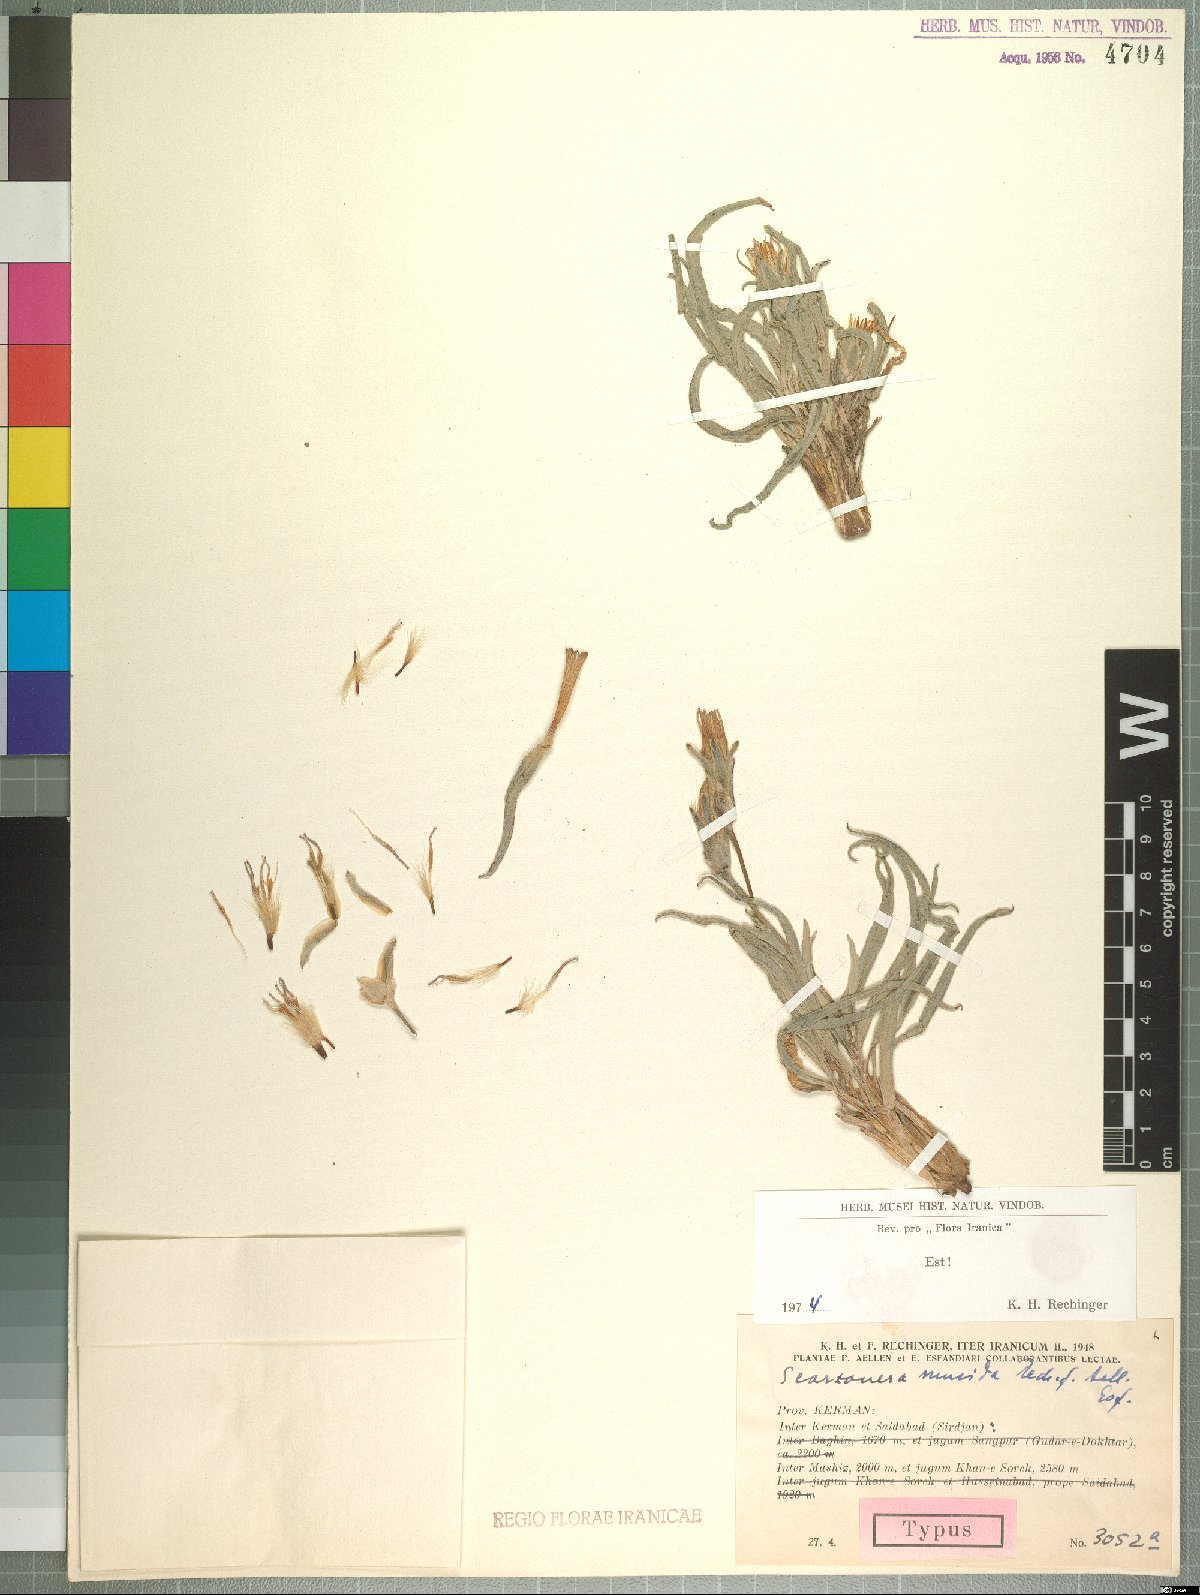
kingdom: Plantae
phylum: Tracheophyta
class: Magnoliopsida
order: Asterales
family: Asteraceae
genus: Candollea
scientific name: Candollea mucida
